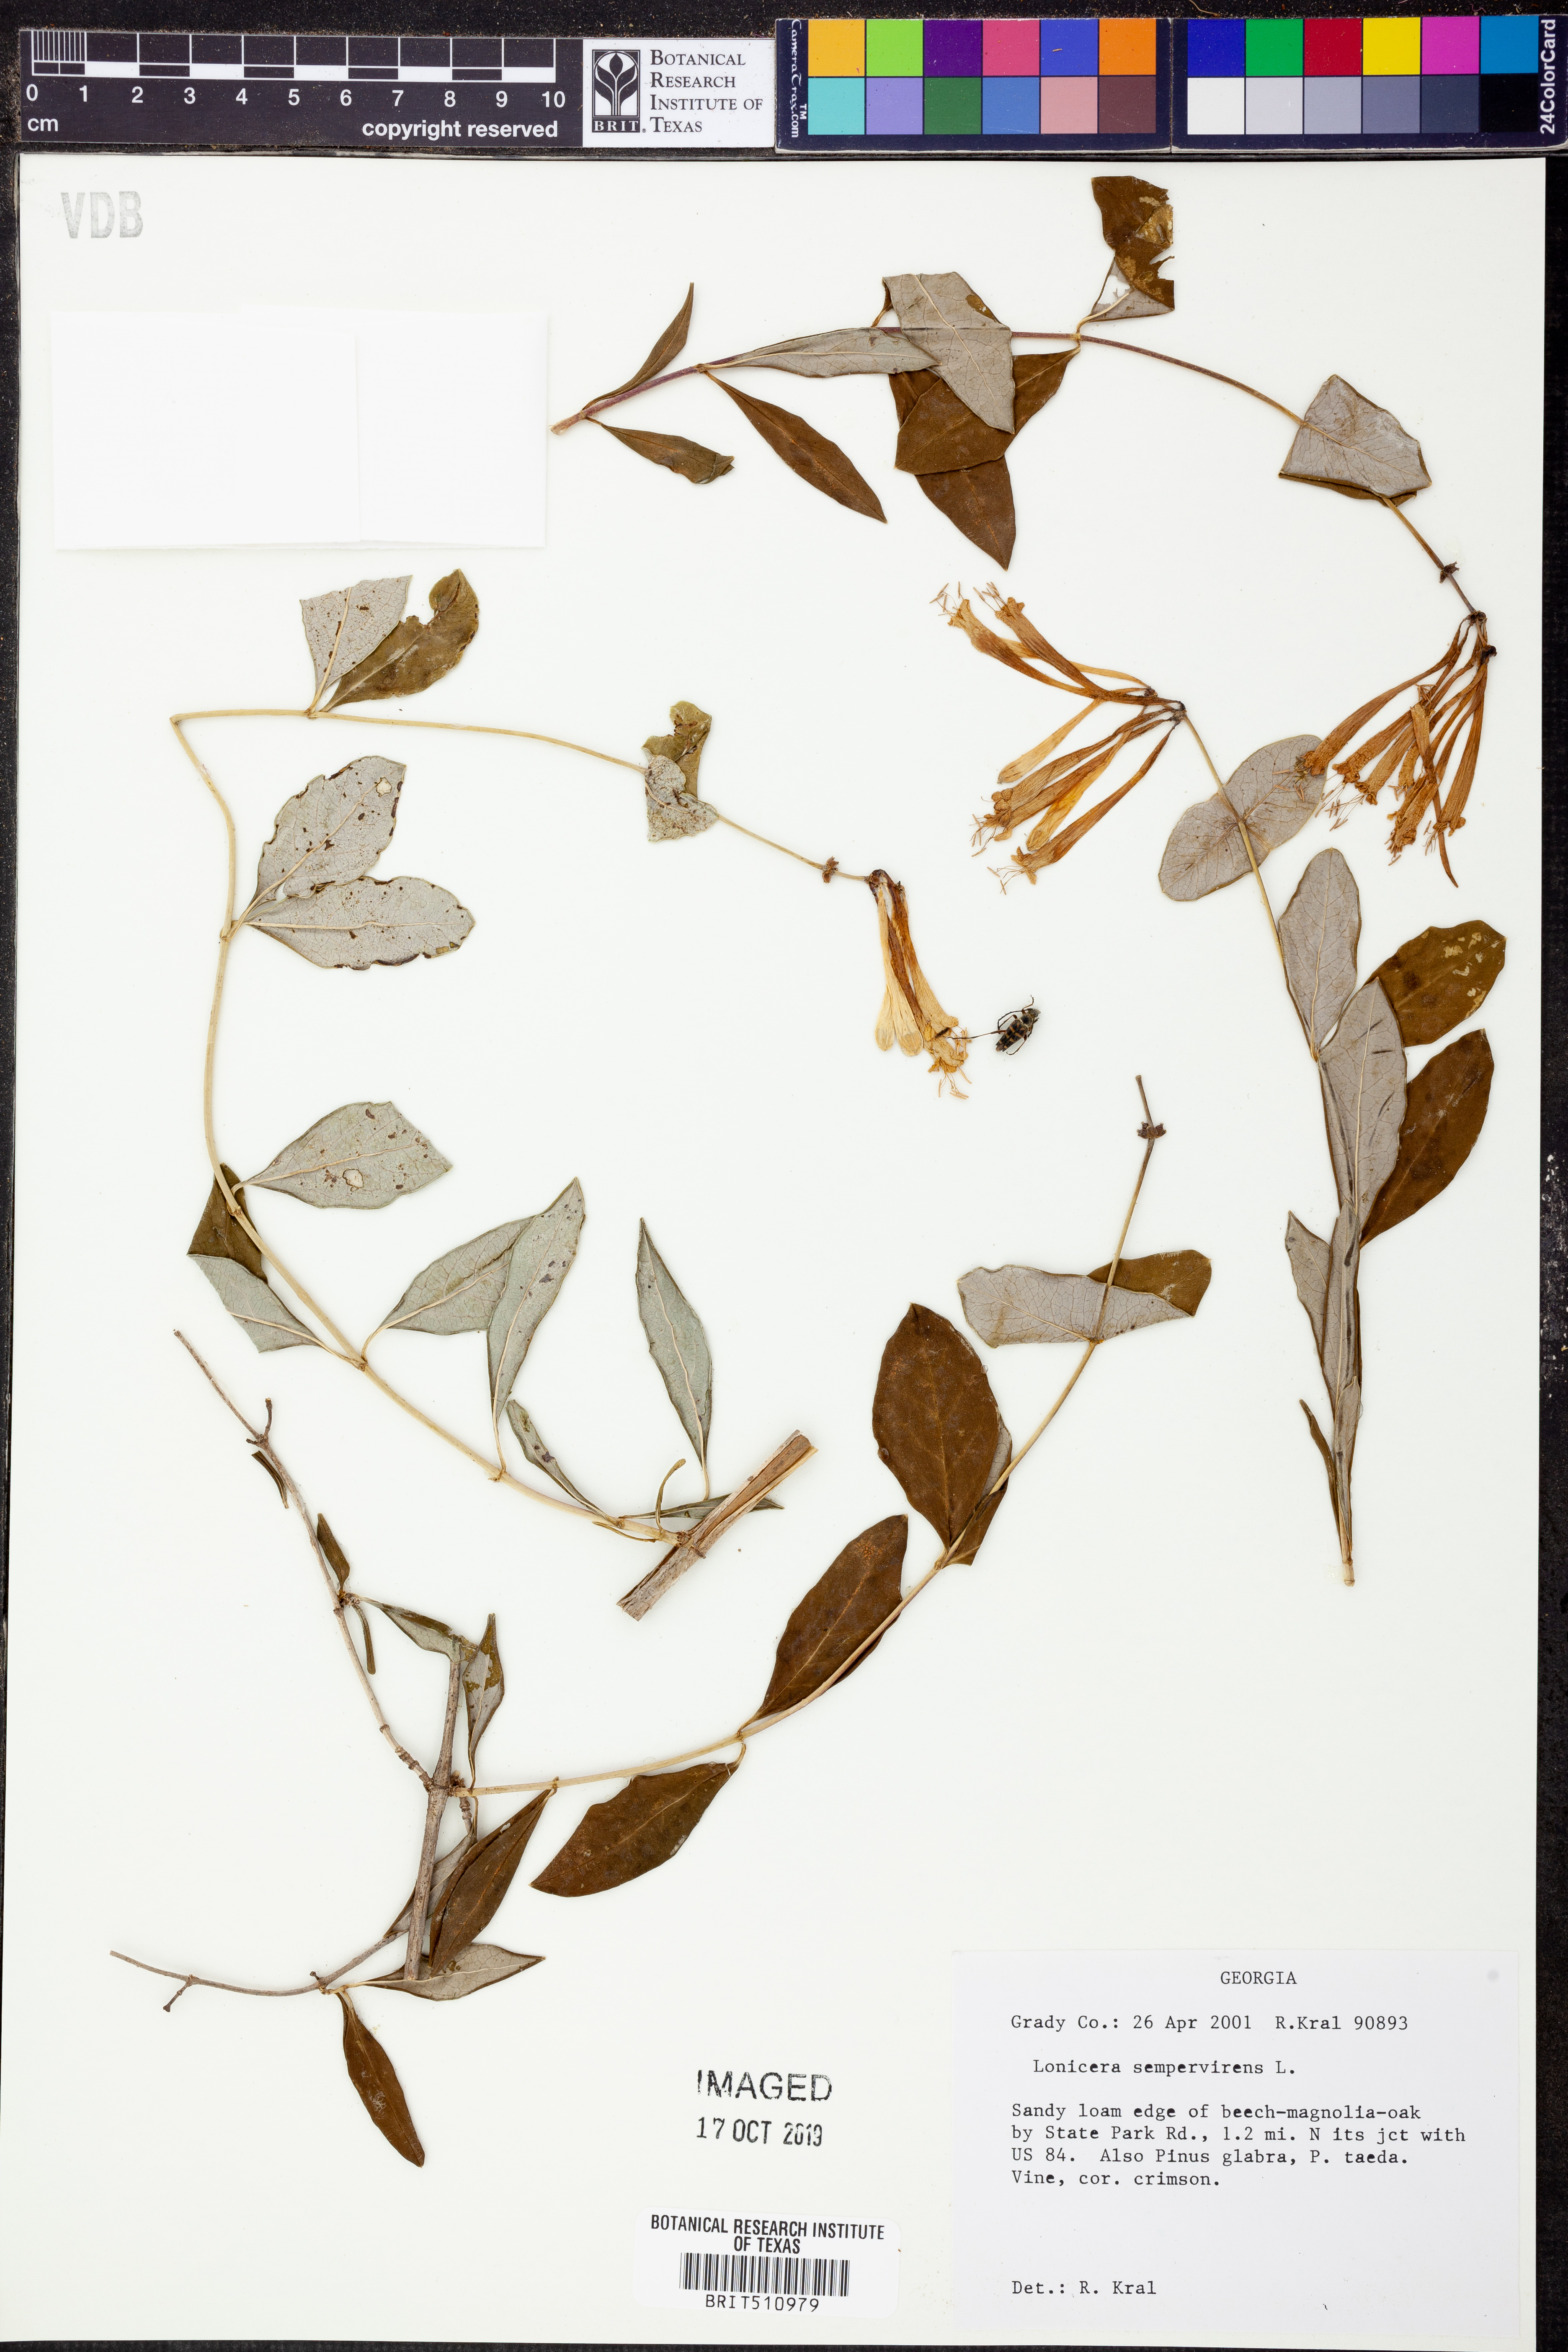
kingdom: Plantae
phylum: Tracheophyta
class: Magnoliopsida
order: Dipsacales
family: Caprifoliaceae
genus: Lonicera
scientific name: Lonicera sempervirens
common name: Coral honeysuckle
